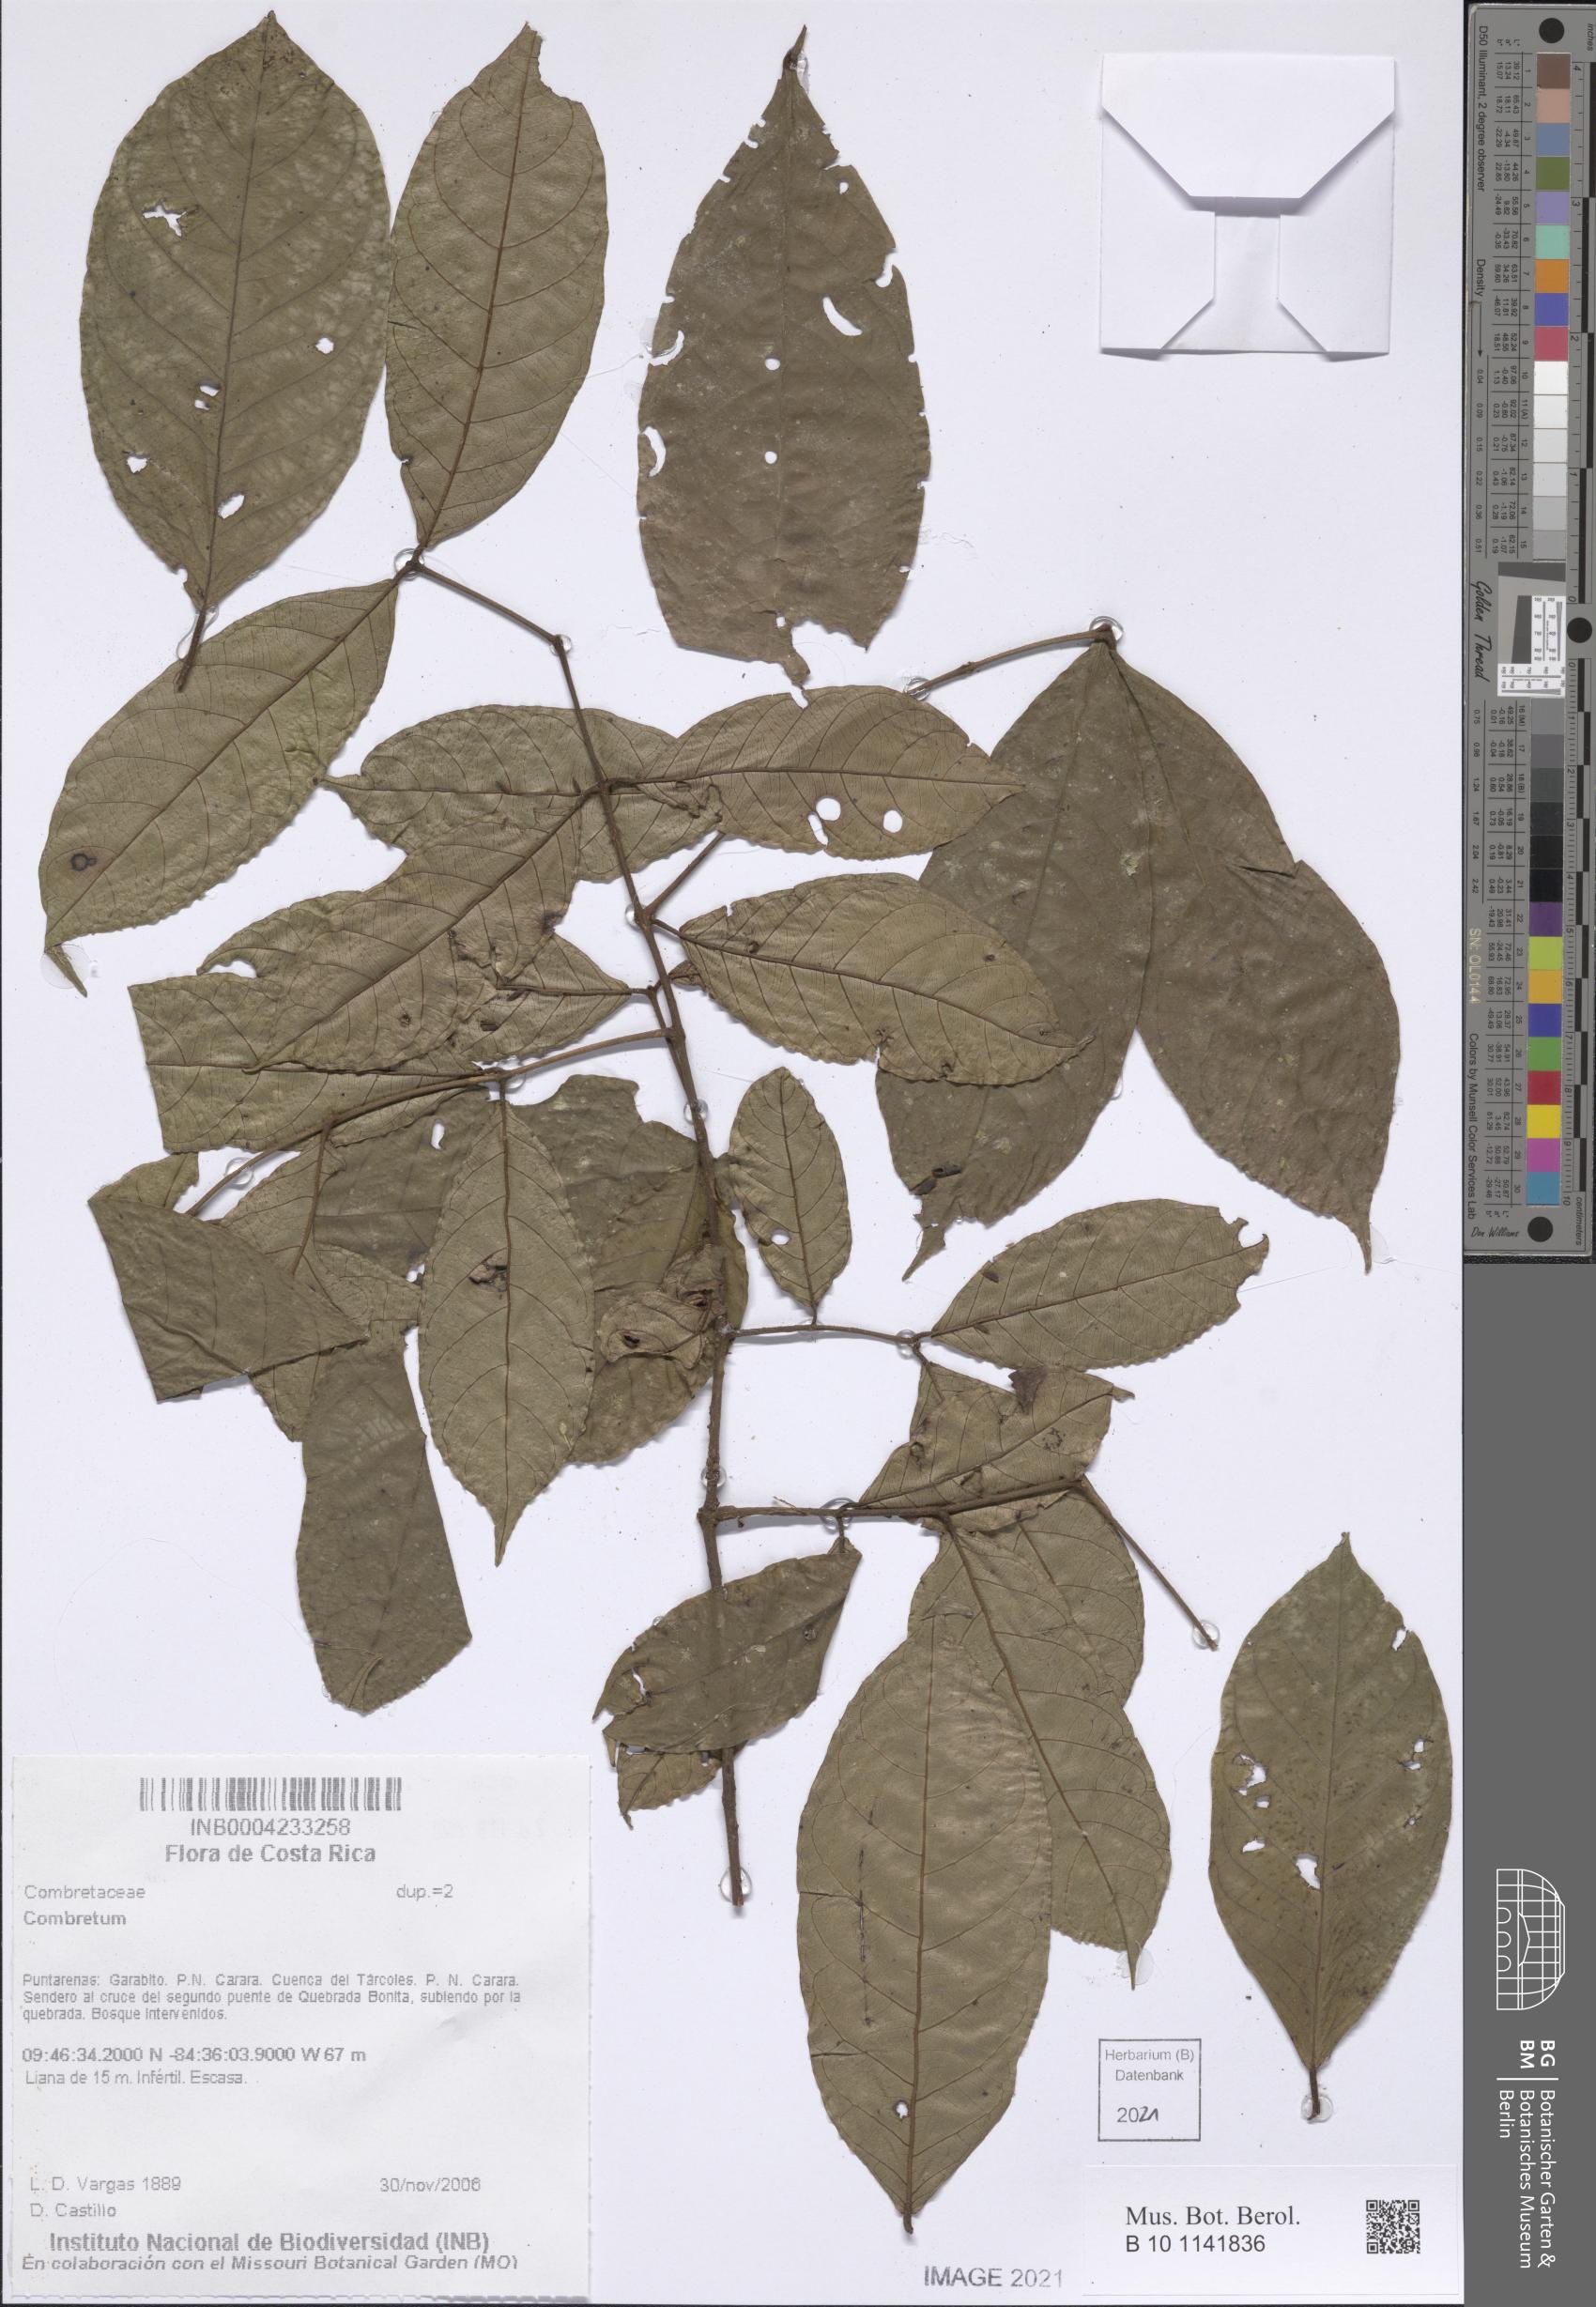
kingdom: Plantae
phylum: Tracheophyta
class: Magnoliopsida
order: Myrtales
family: Combretaceae
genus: Combretum
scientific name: Combretum
